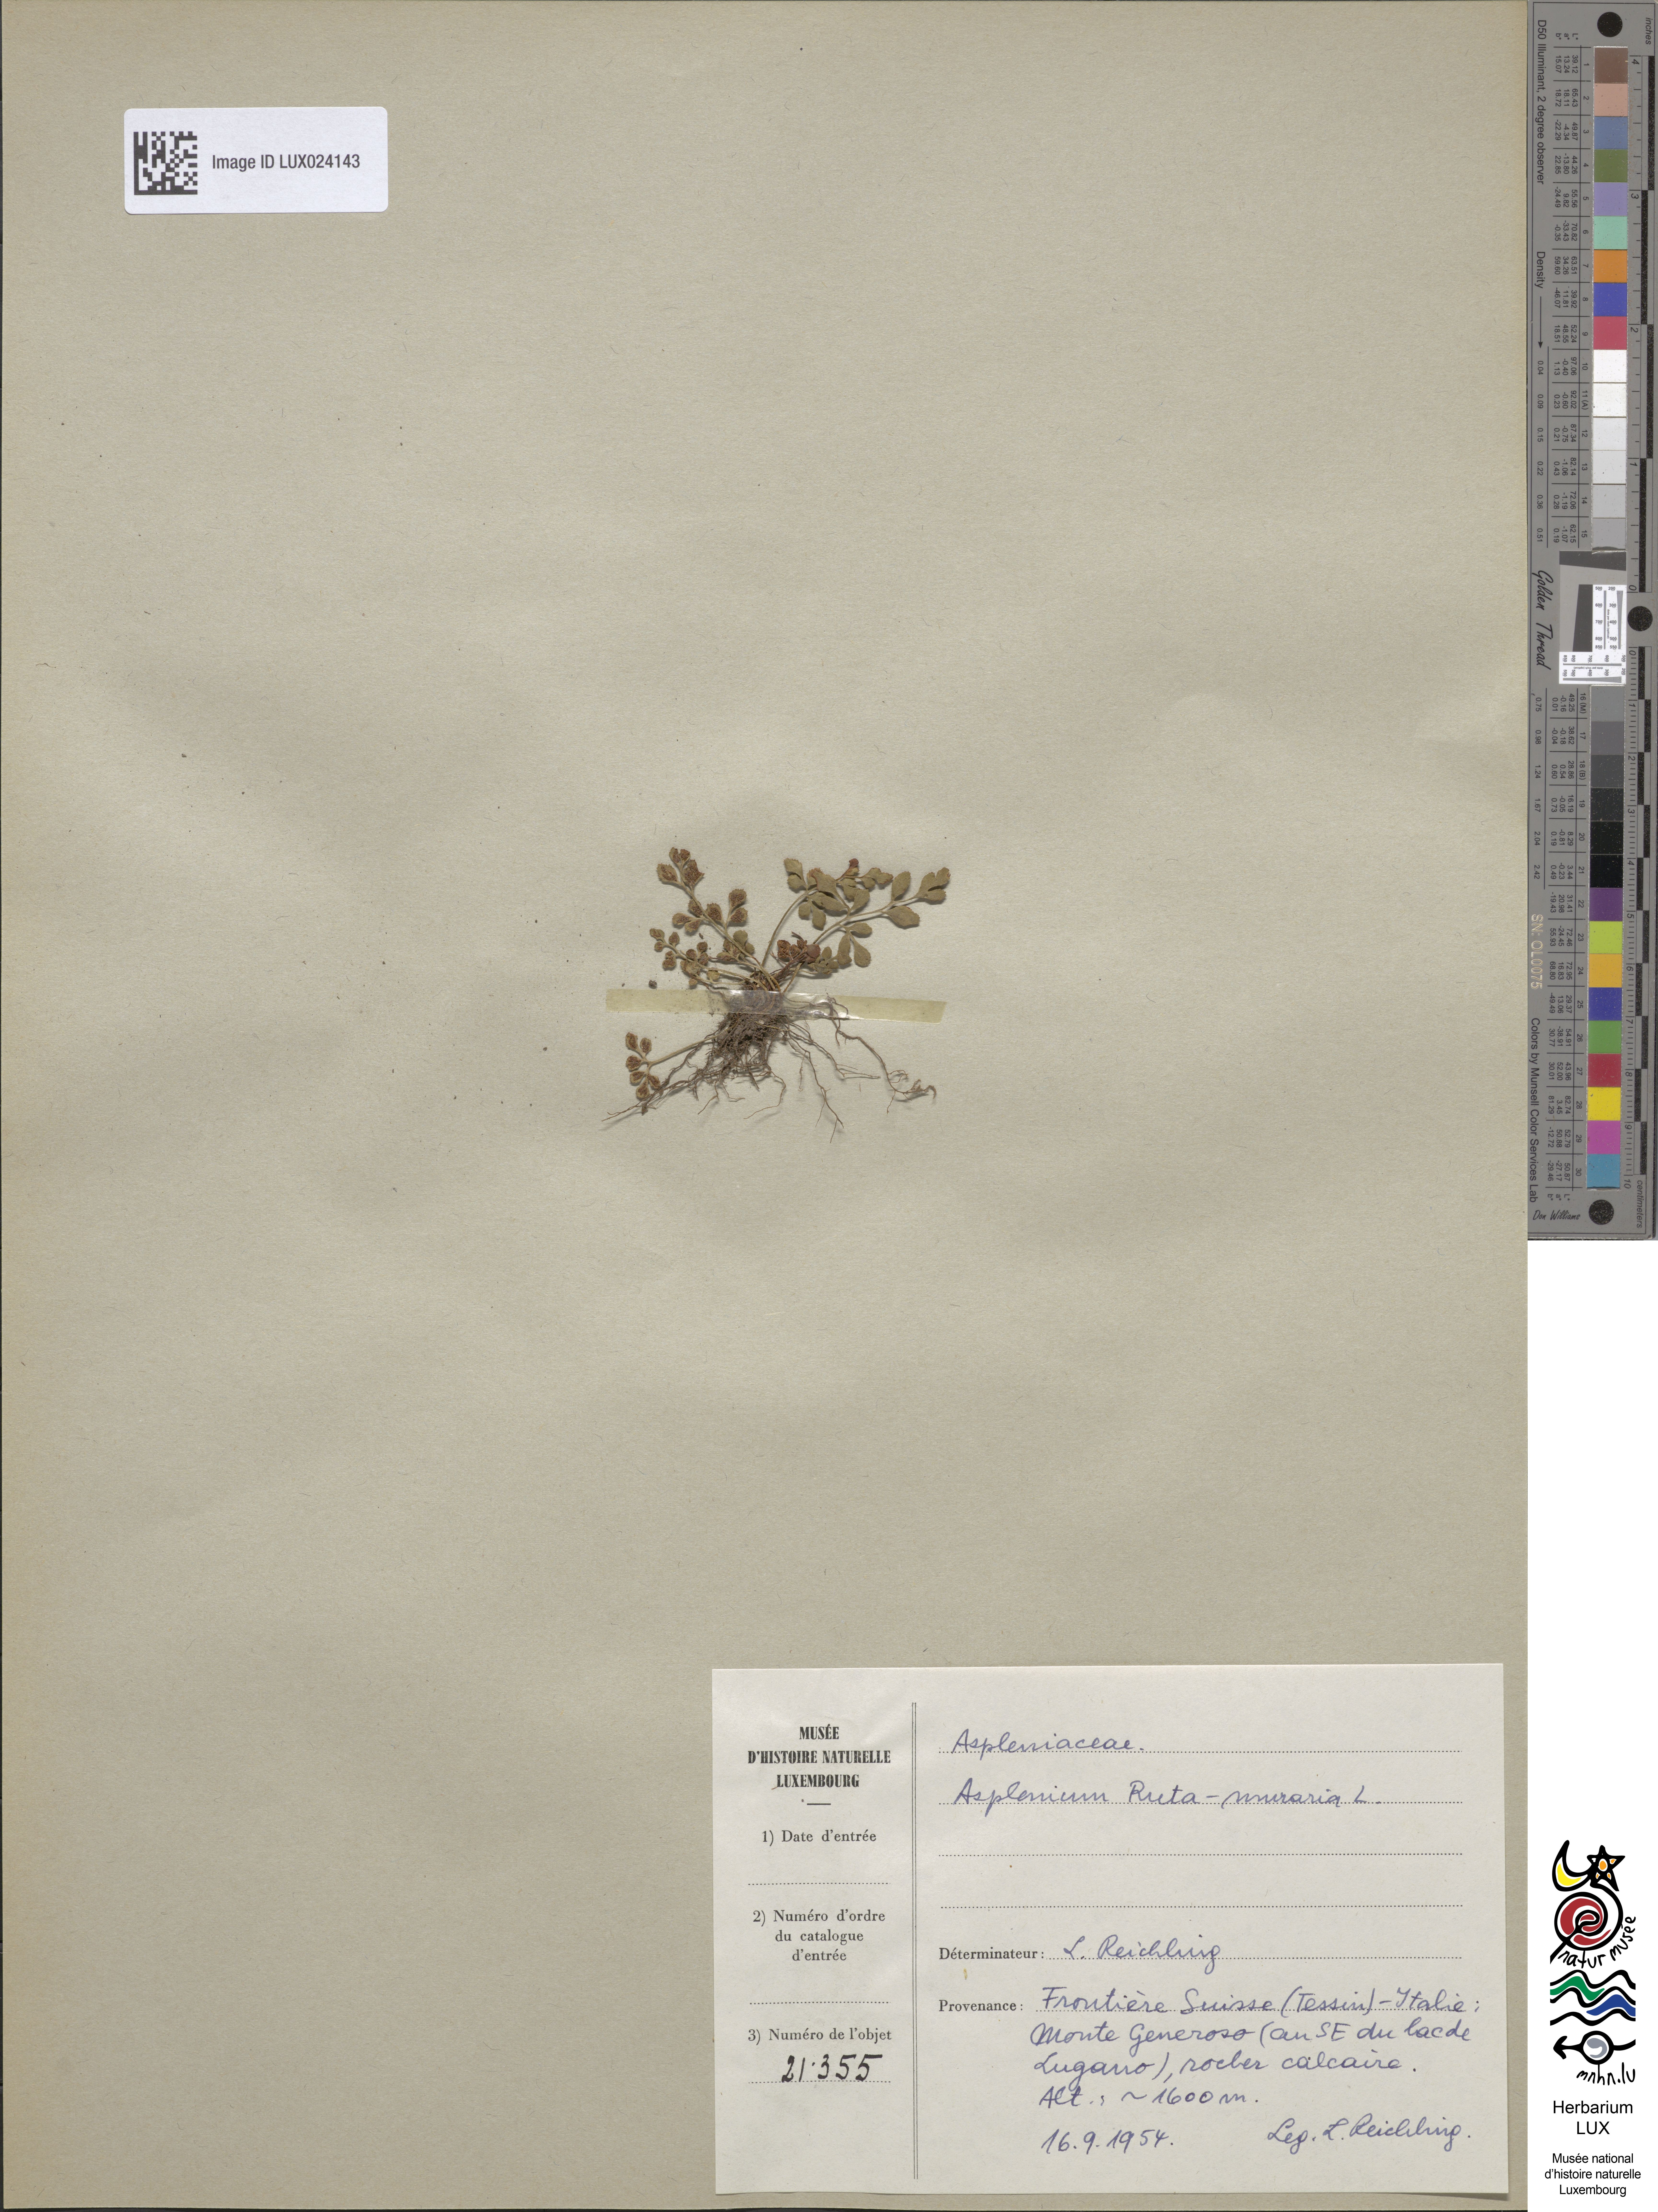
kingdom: Plantae
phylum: Tracheophyta
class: Polypodiopsida
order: Polypodiales
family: Aspleniaceae
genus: Asplenium
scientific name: Asplenium ruta-muraria
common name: Wall-rue
